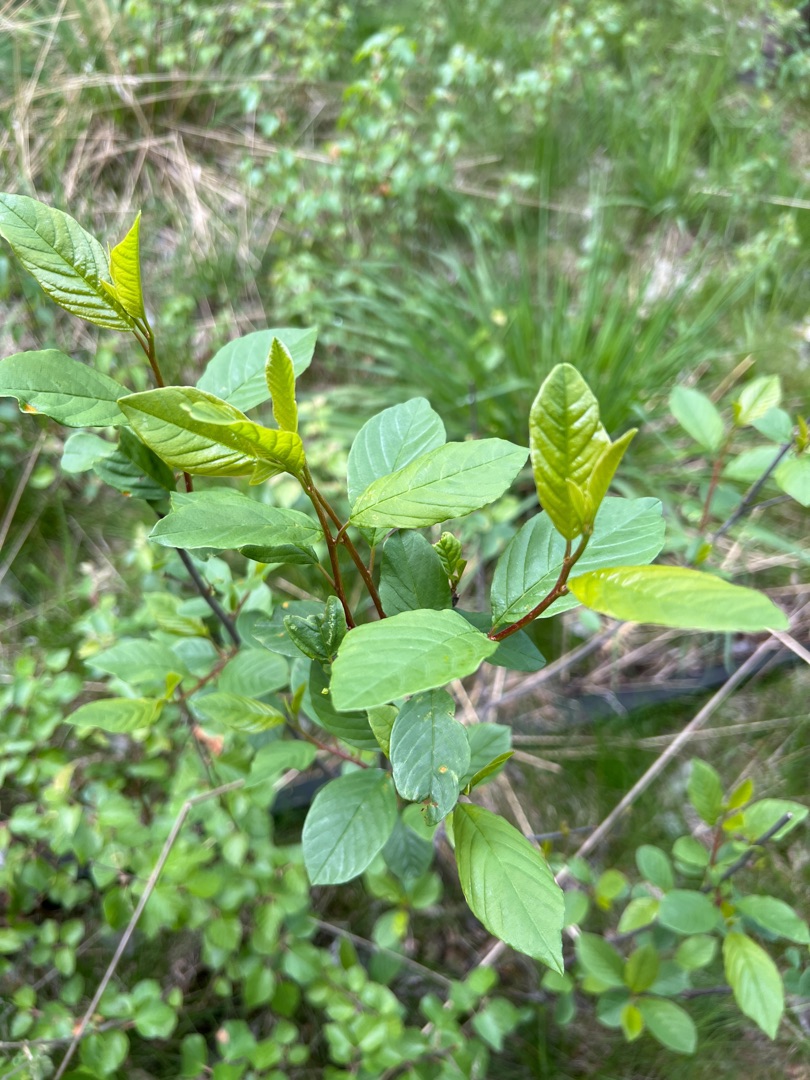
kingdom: Plantae
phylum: Tracheophyta
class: Magnoliopsida
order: Rosales
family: Rhamnaceae
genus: Frangula
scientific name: Frangula alnus
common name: Tørst
